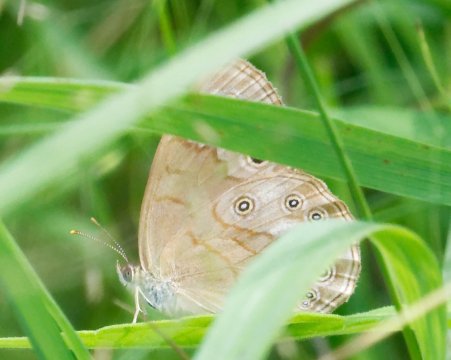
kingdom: Animalia
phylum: Arthropoda
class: Insecta
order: Lepidoptera
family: Nymphalidae
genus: Lethe
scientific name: Lethe eurydice
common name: Eyed Brown
